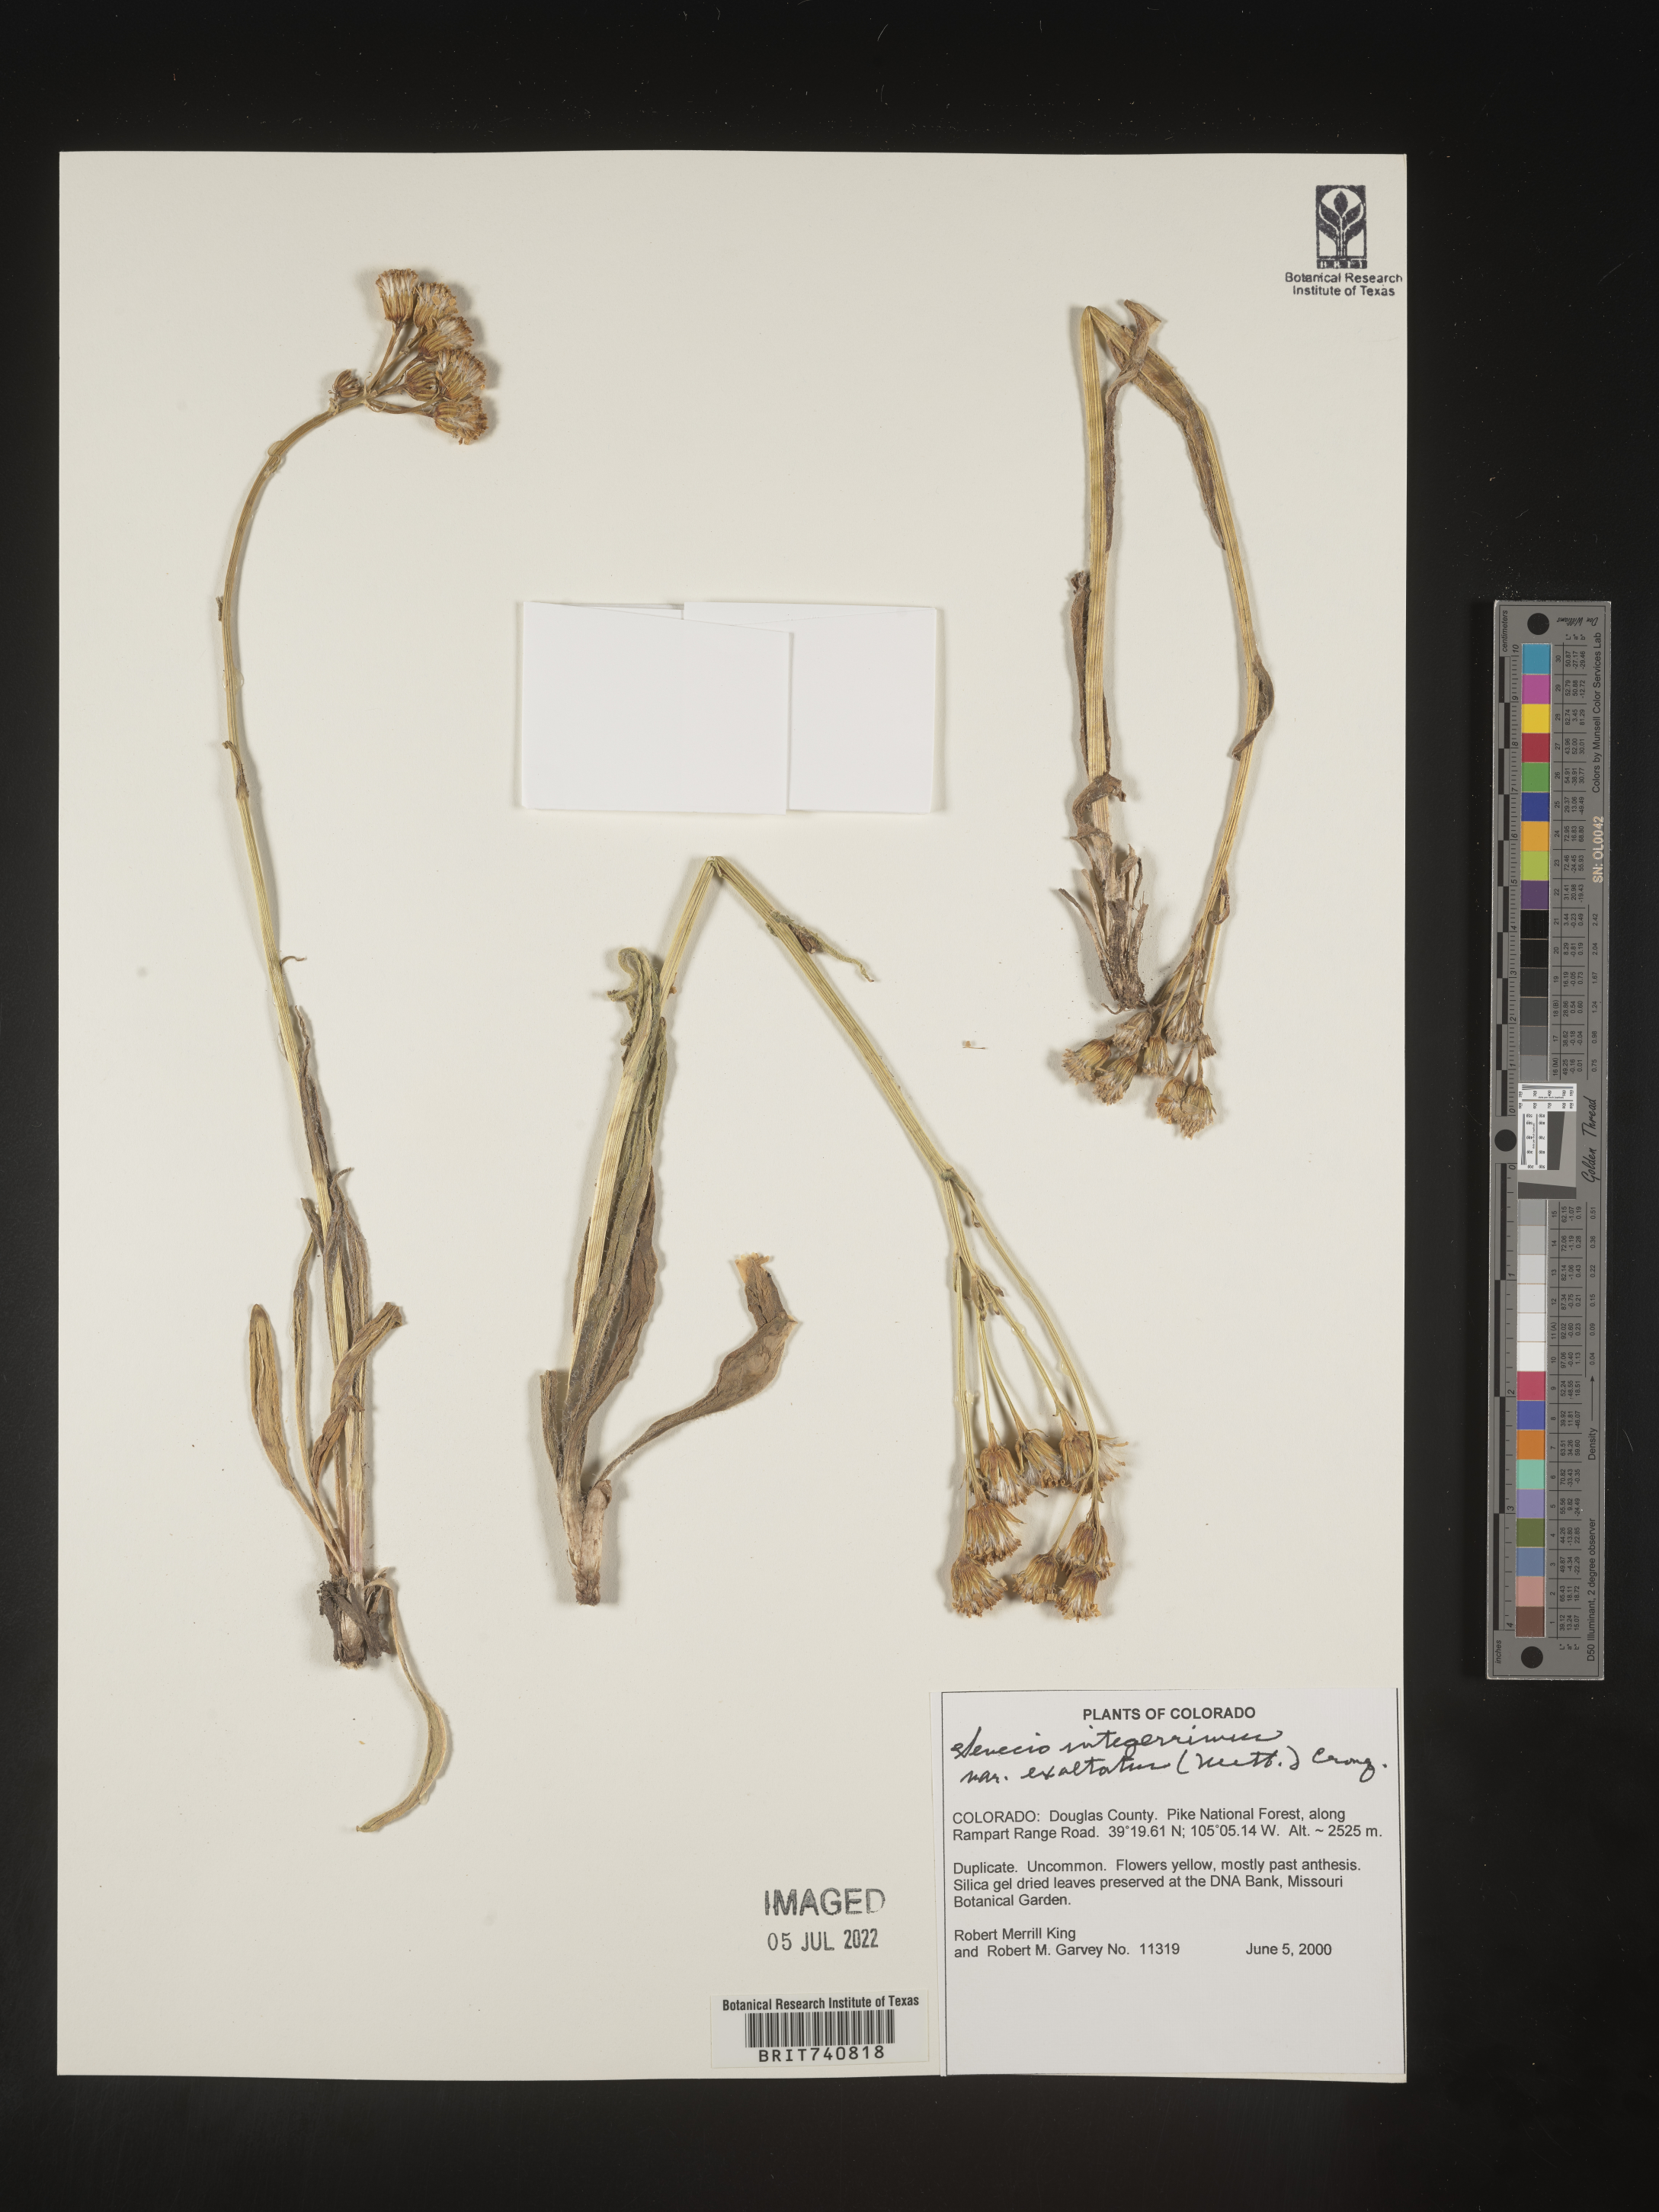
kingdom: Plantae
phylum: Tracheophyta
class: Magnoliopsida
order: Asterales
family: Asteraceae
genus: Senecio
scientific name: Senecio integerrimus
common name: Gaugeplant
